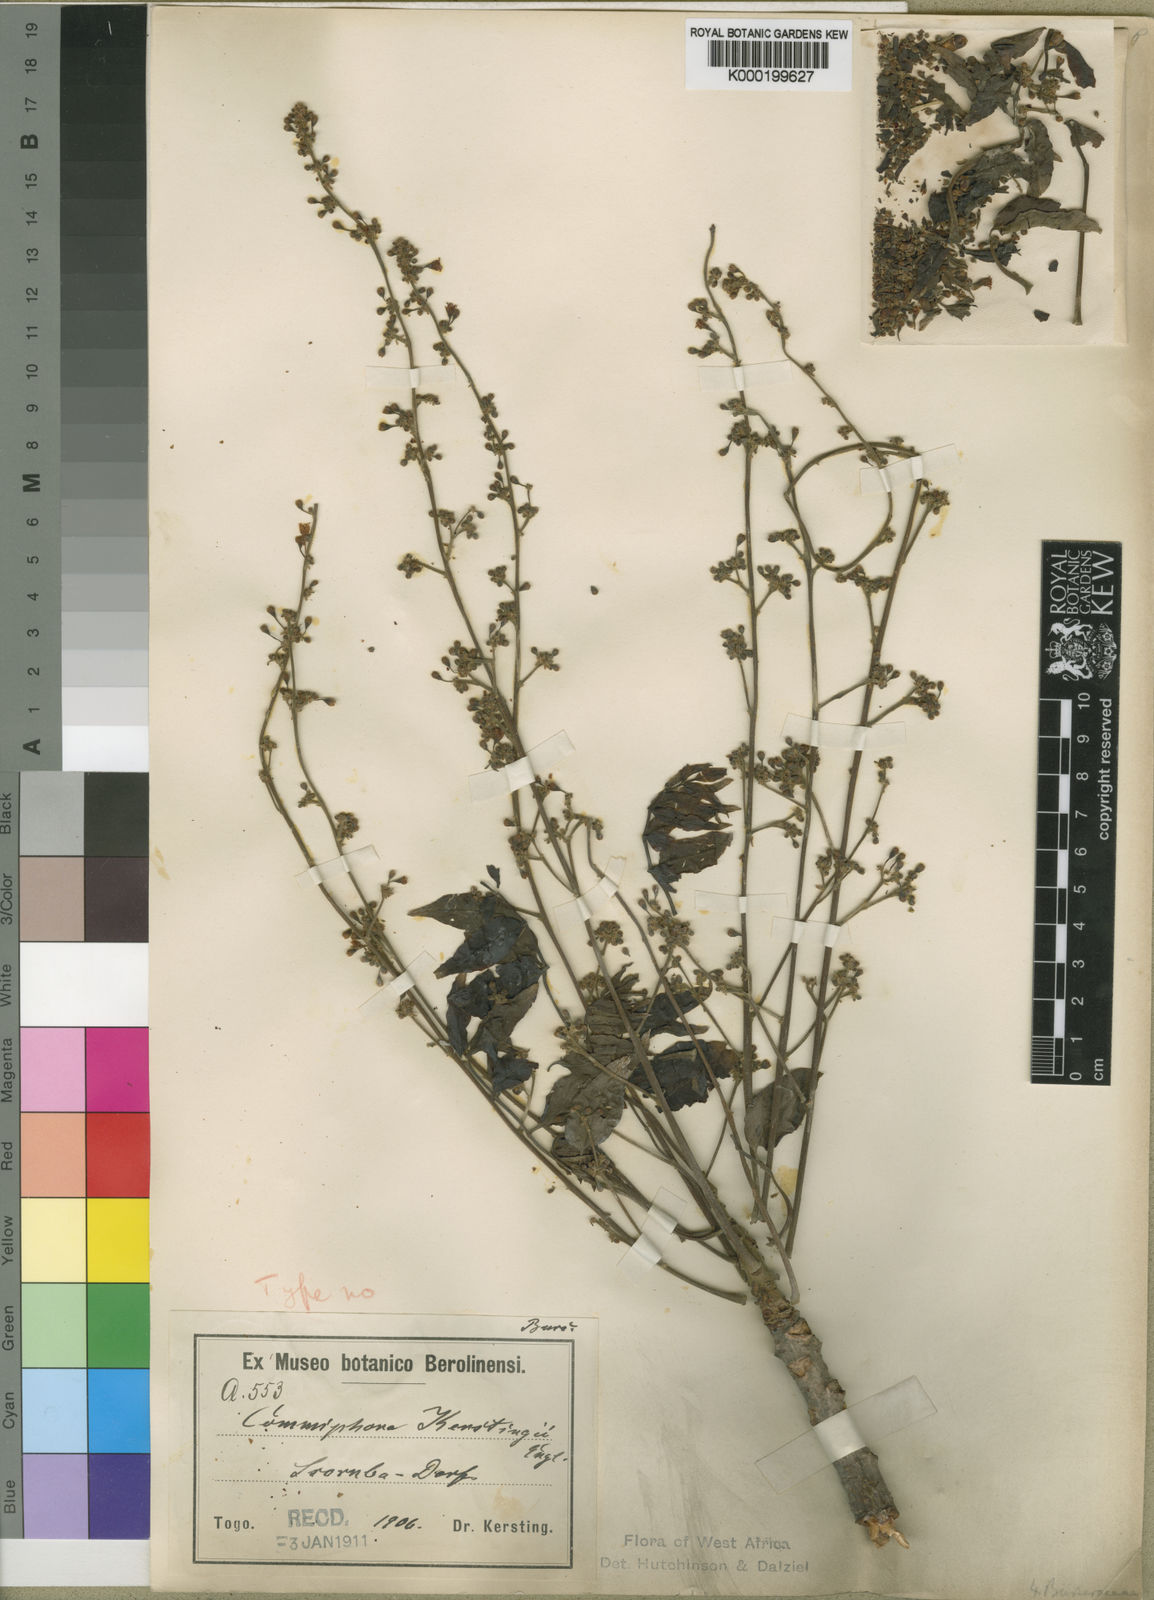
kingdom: Plantae
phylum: Tracheophyta
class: Magnoliopsida
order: Sapindales
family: Burseraceae
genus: Commiphora
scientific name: Commiphora kerstingii
